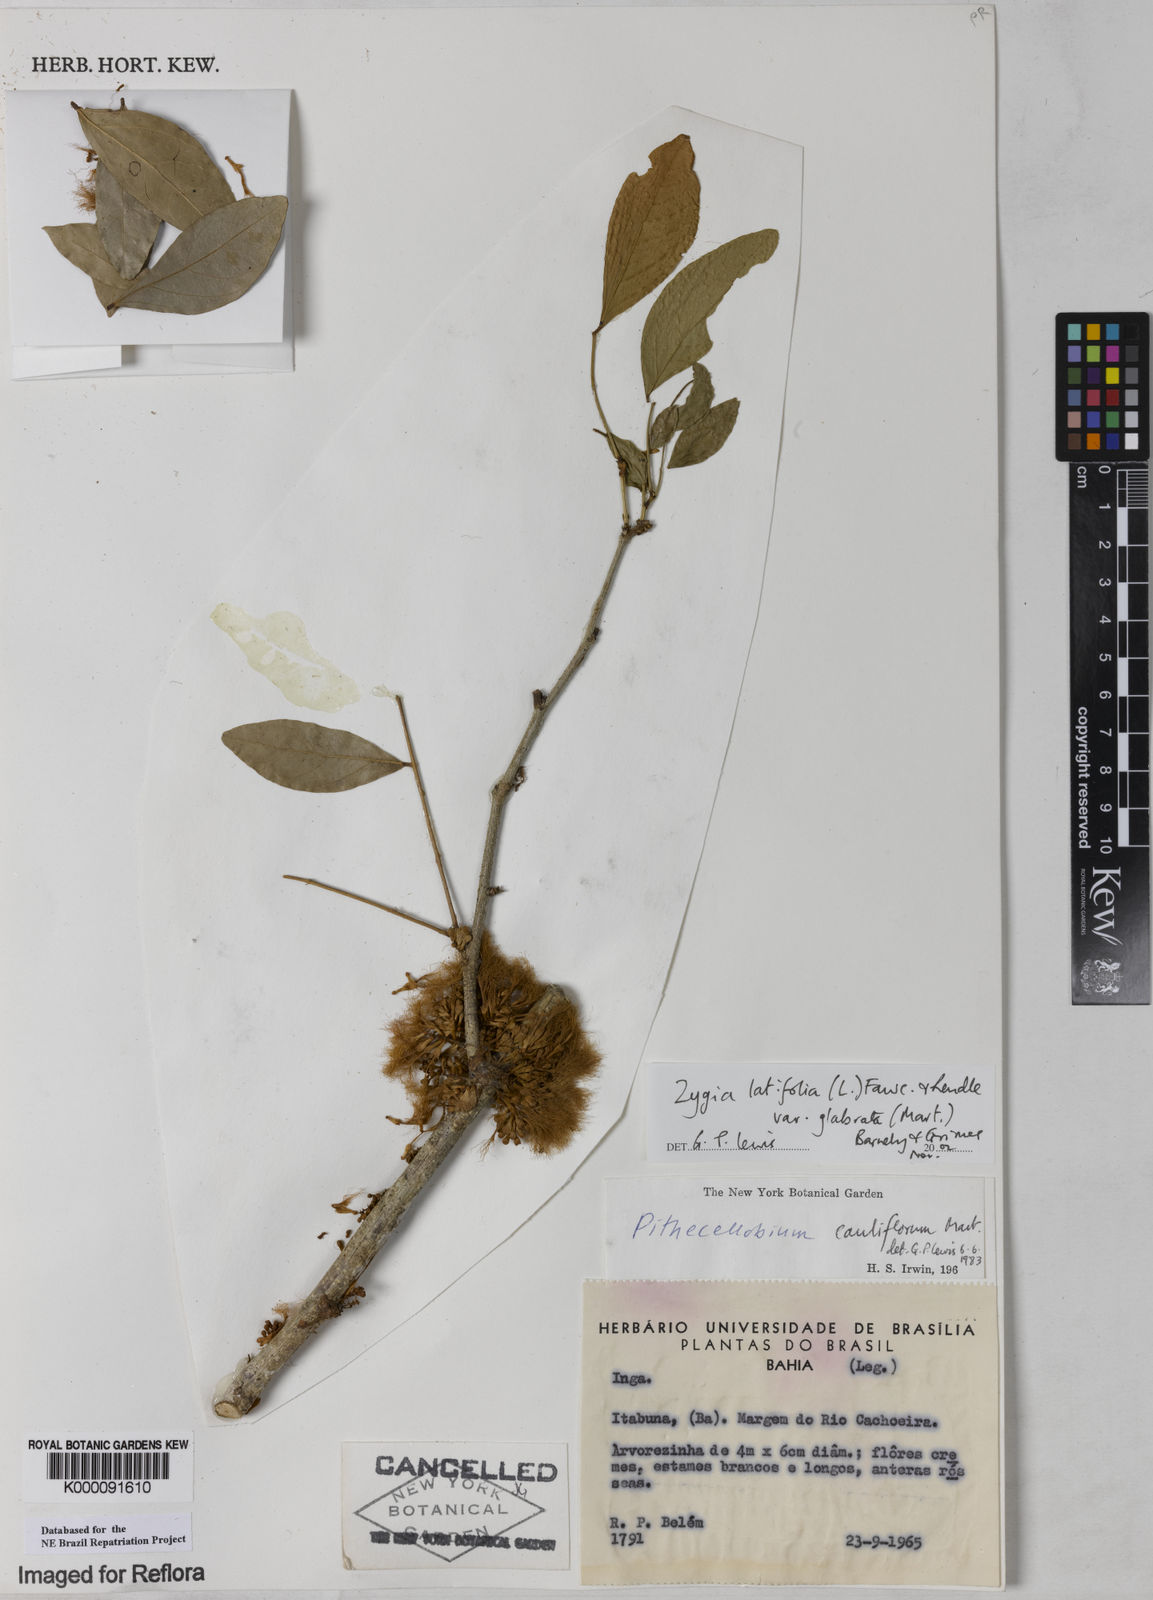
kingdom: Plantae
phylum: Tracheophyta
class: Magnoliopsida
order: Fabales
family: Fabaceae
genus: Zygia
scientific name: Zygia latifolia
